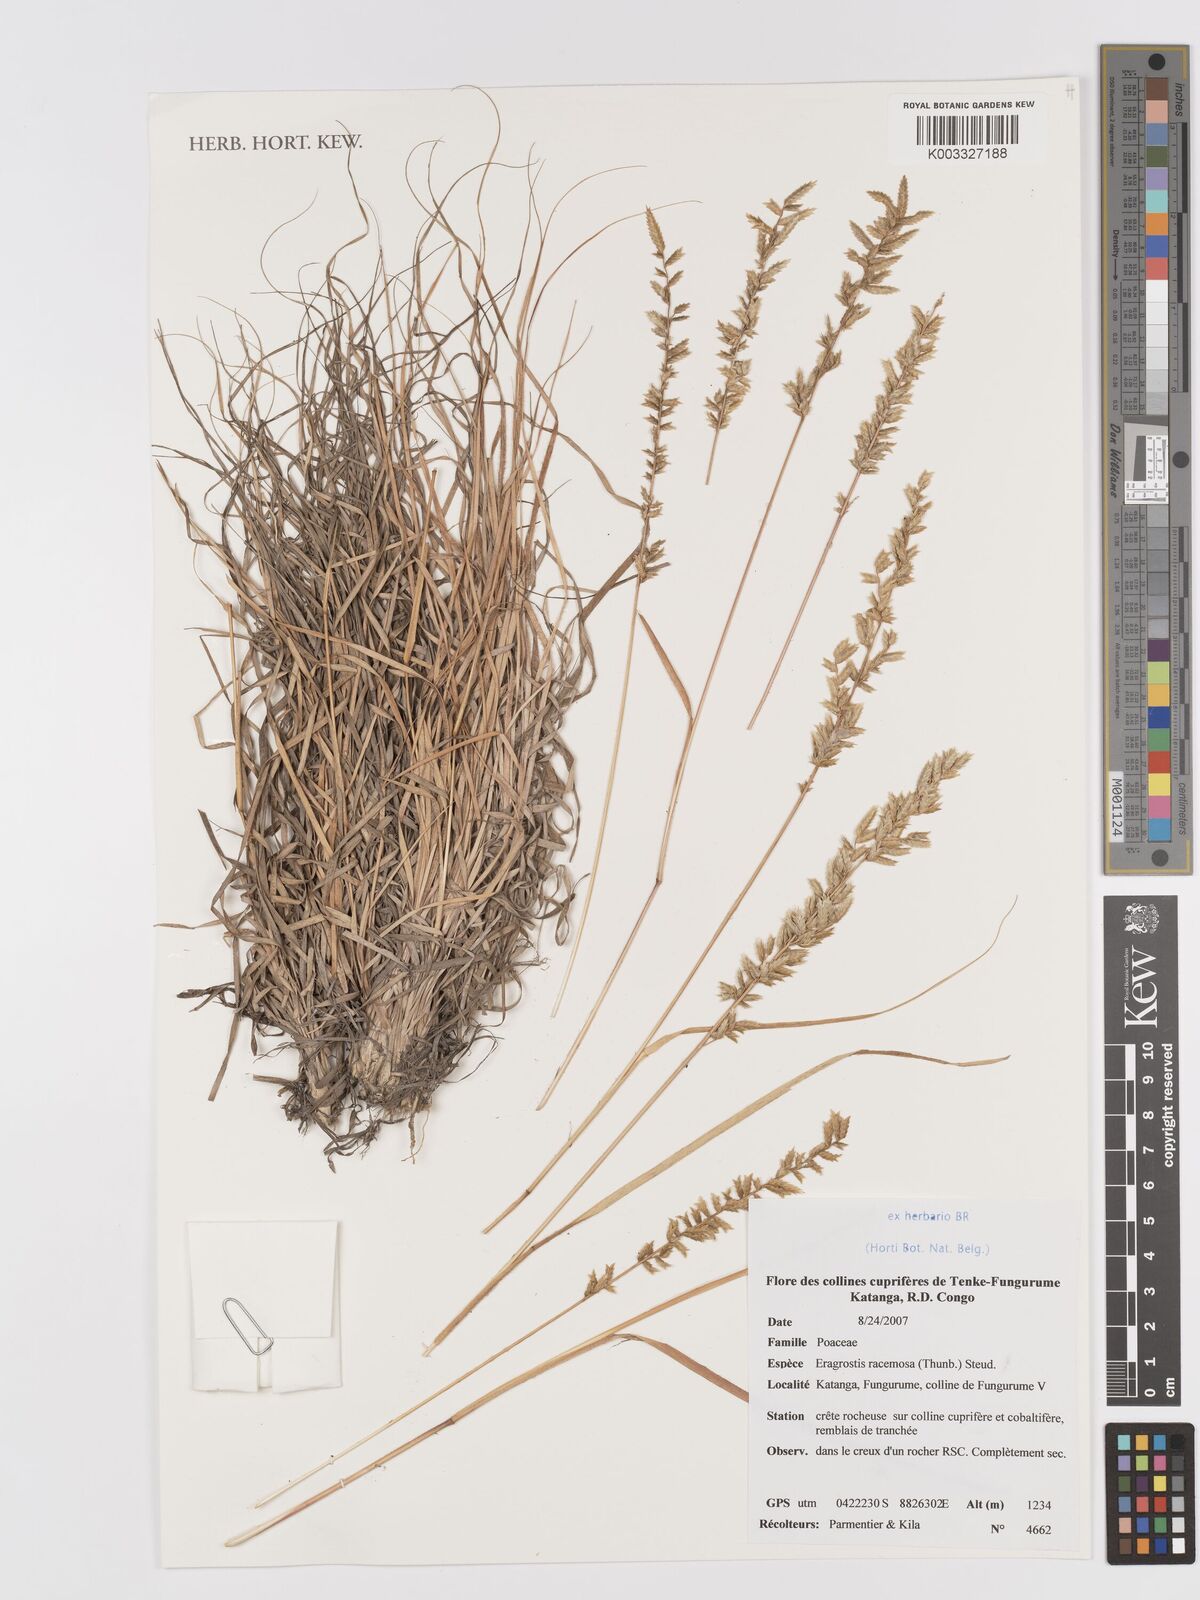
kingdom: Plantae
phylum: Tracheophyta
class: Liliopsida
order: Poales
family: Poaceae
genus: Eragrostis
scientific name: Eragrostis racemosa
